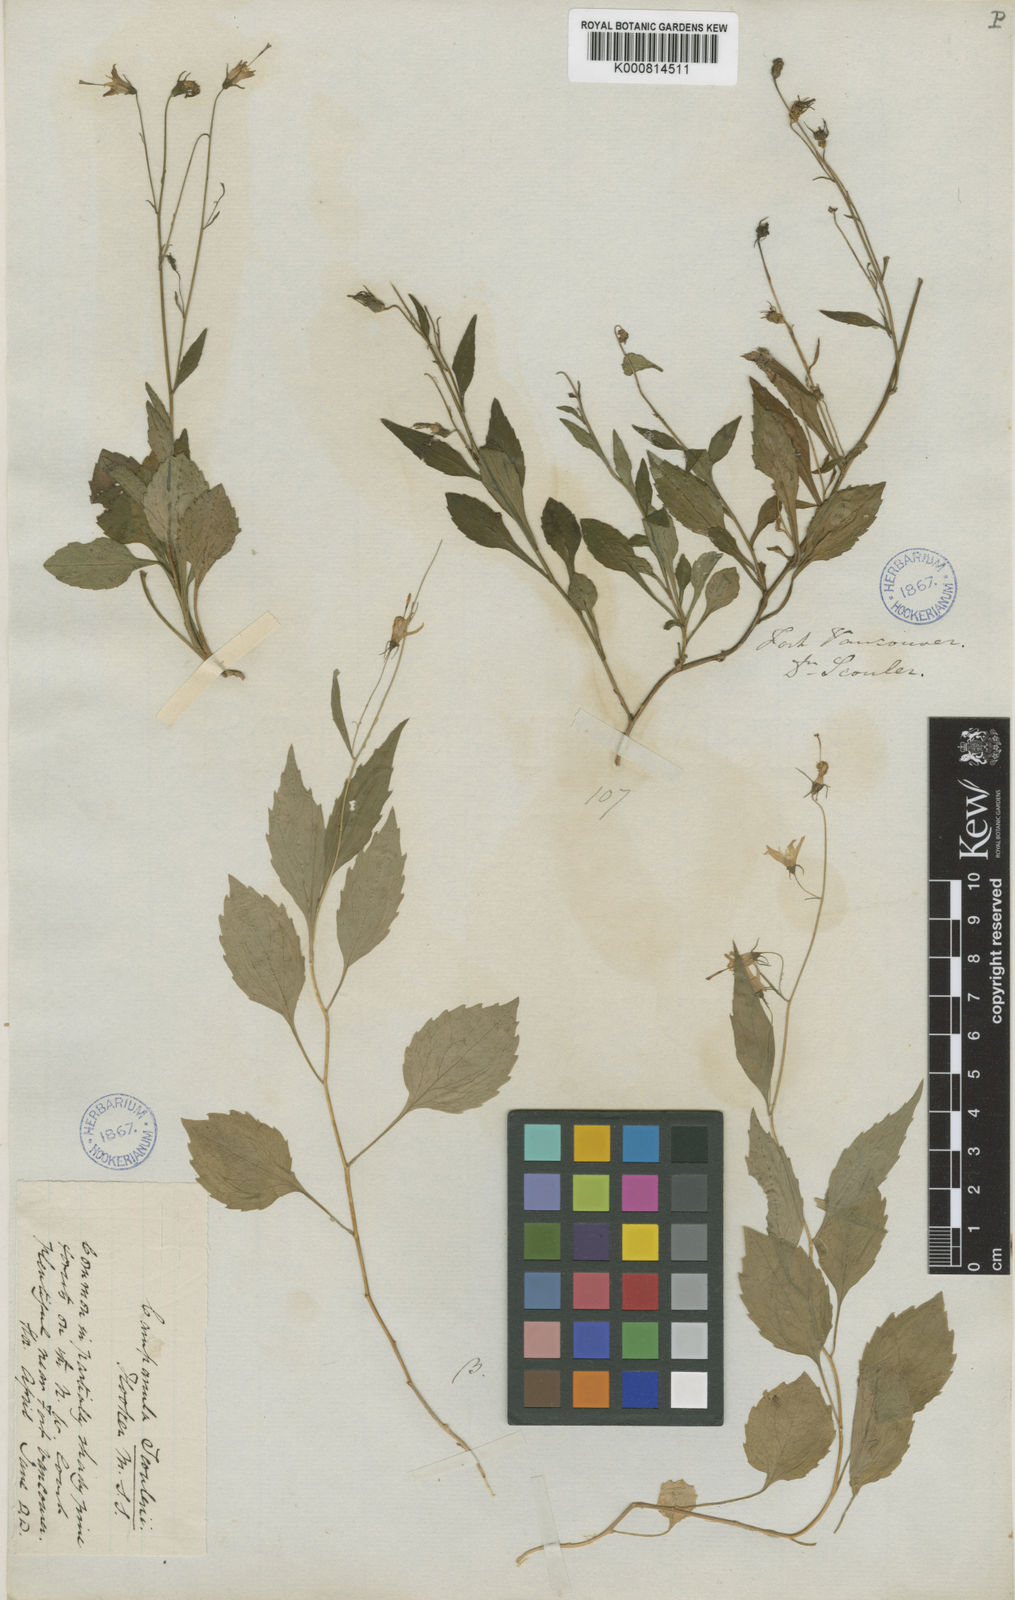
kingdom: Plantae
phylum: Tracheophyta
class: Magnoliopsida
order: Asterales
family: Campanulaceae
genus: Campanula
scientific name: Campanula scouleri
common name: Scouler's harebell
